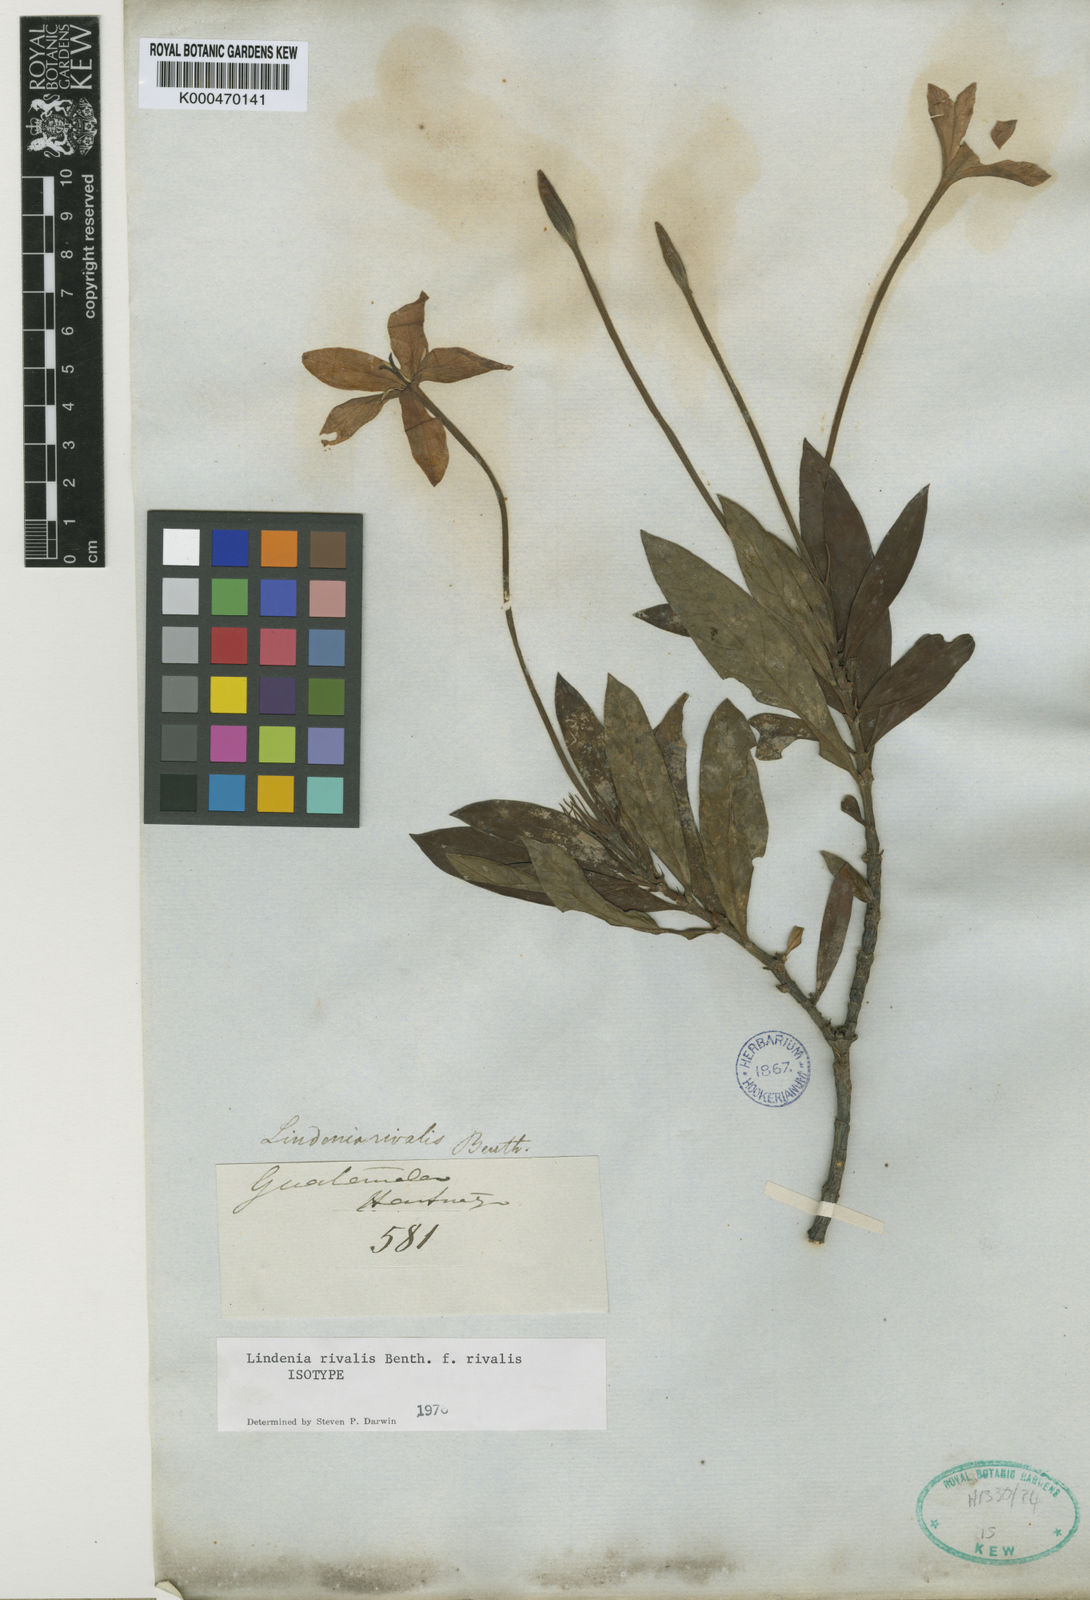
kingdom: Plantae
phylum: Tracheophyta
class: Magnoliopsida
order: Gentianales
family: Rubiaceae
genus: Augusta
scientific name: Augusta
